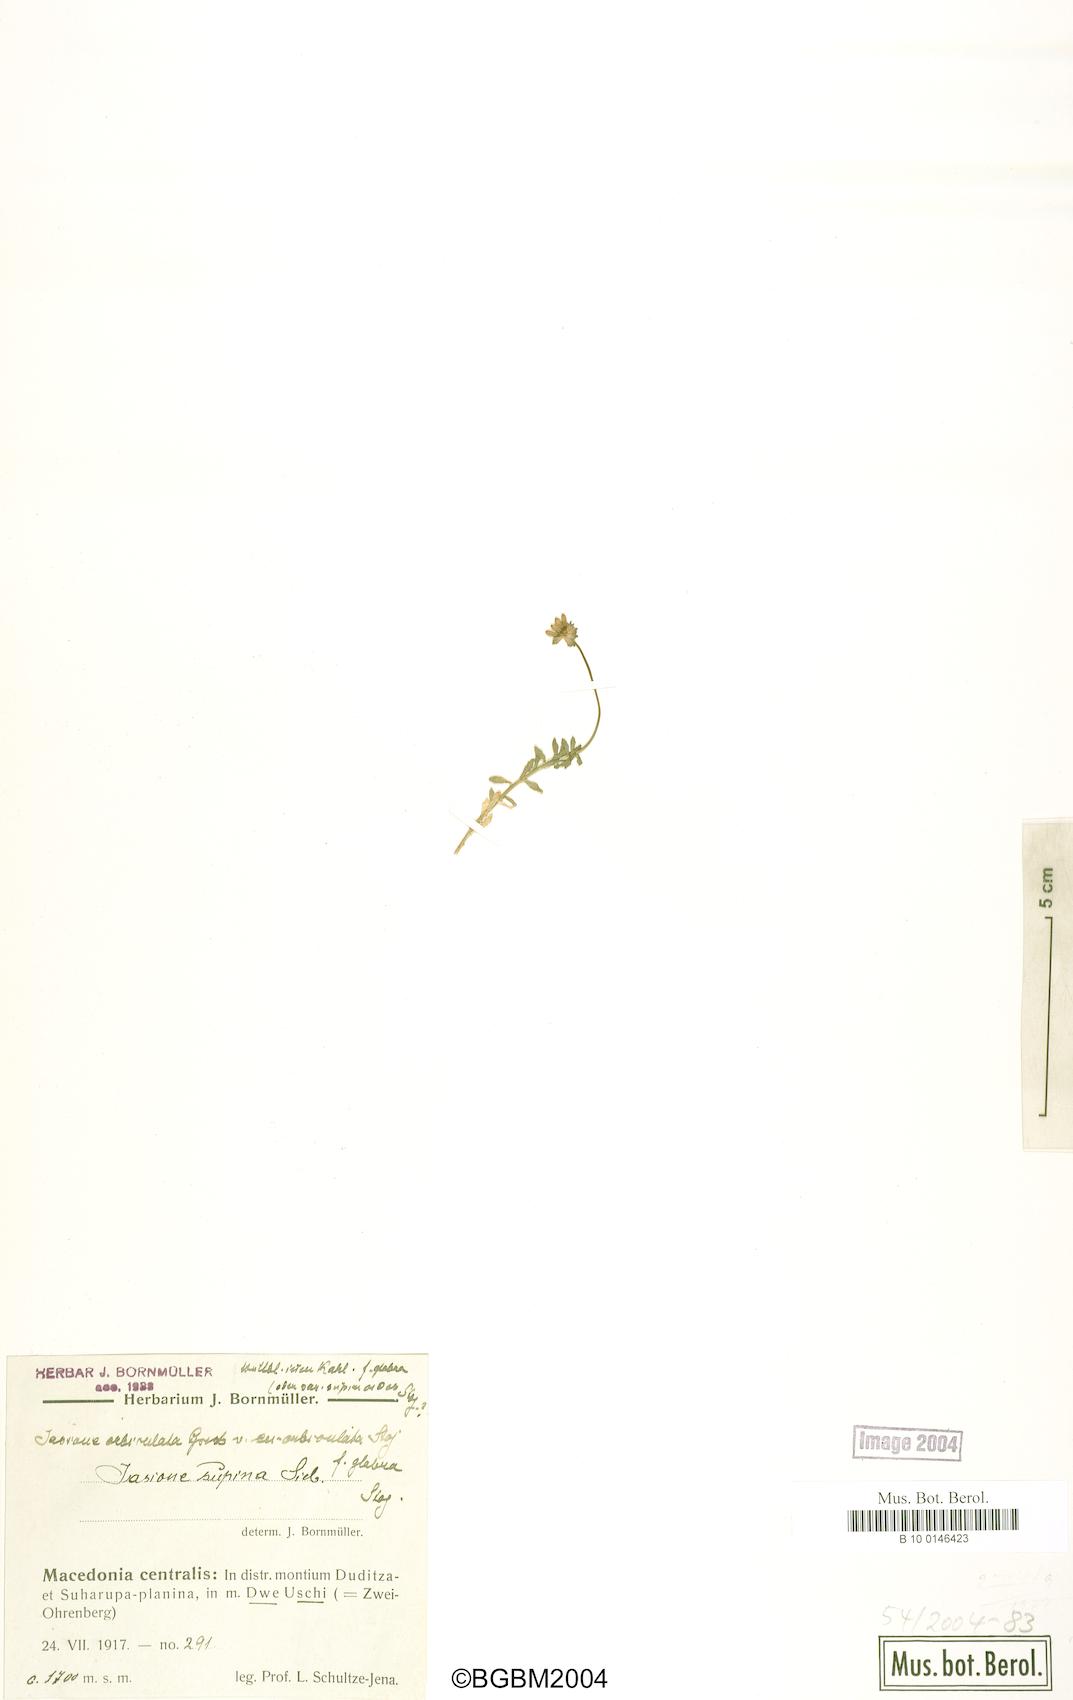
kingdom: Plantae
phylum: Tracheophyta
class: Magnoliopsida
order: Asterales
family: Campanulaceae
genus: Jasione
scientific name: Jasione orbiculata
